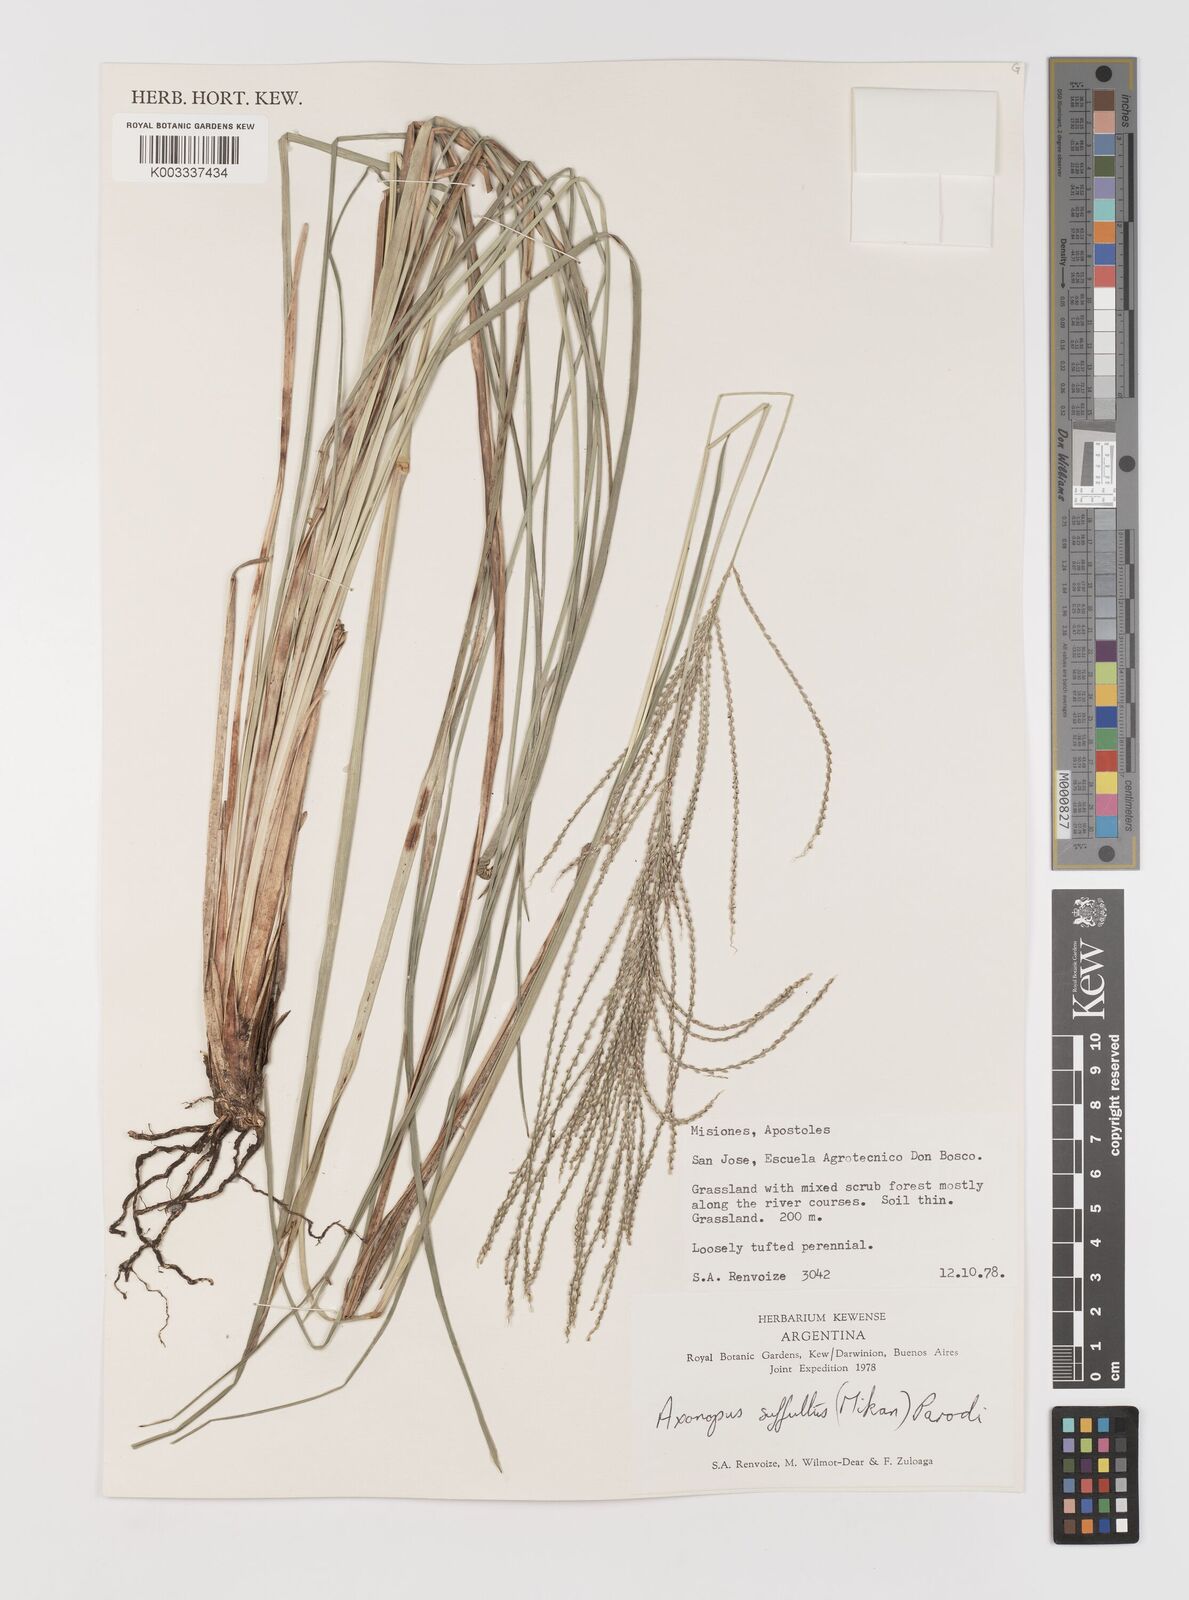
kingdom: Plantae
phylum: Tracheophyta
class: Liliopsida
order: Poales
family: Poaceae
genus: Axonopus
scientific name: Axonopus suffultus
